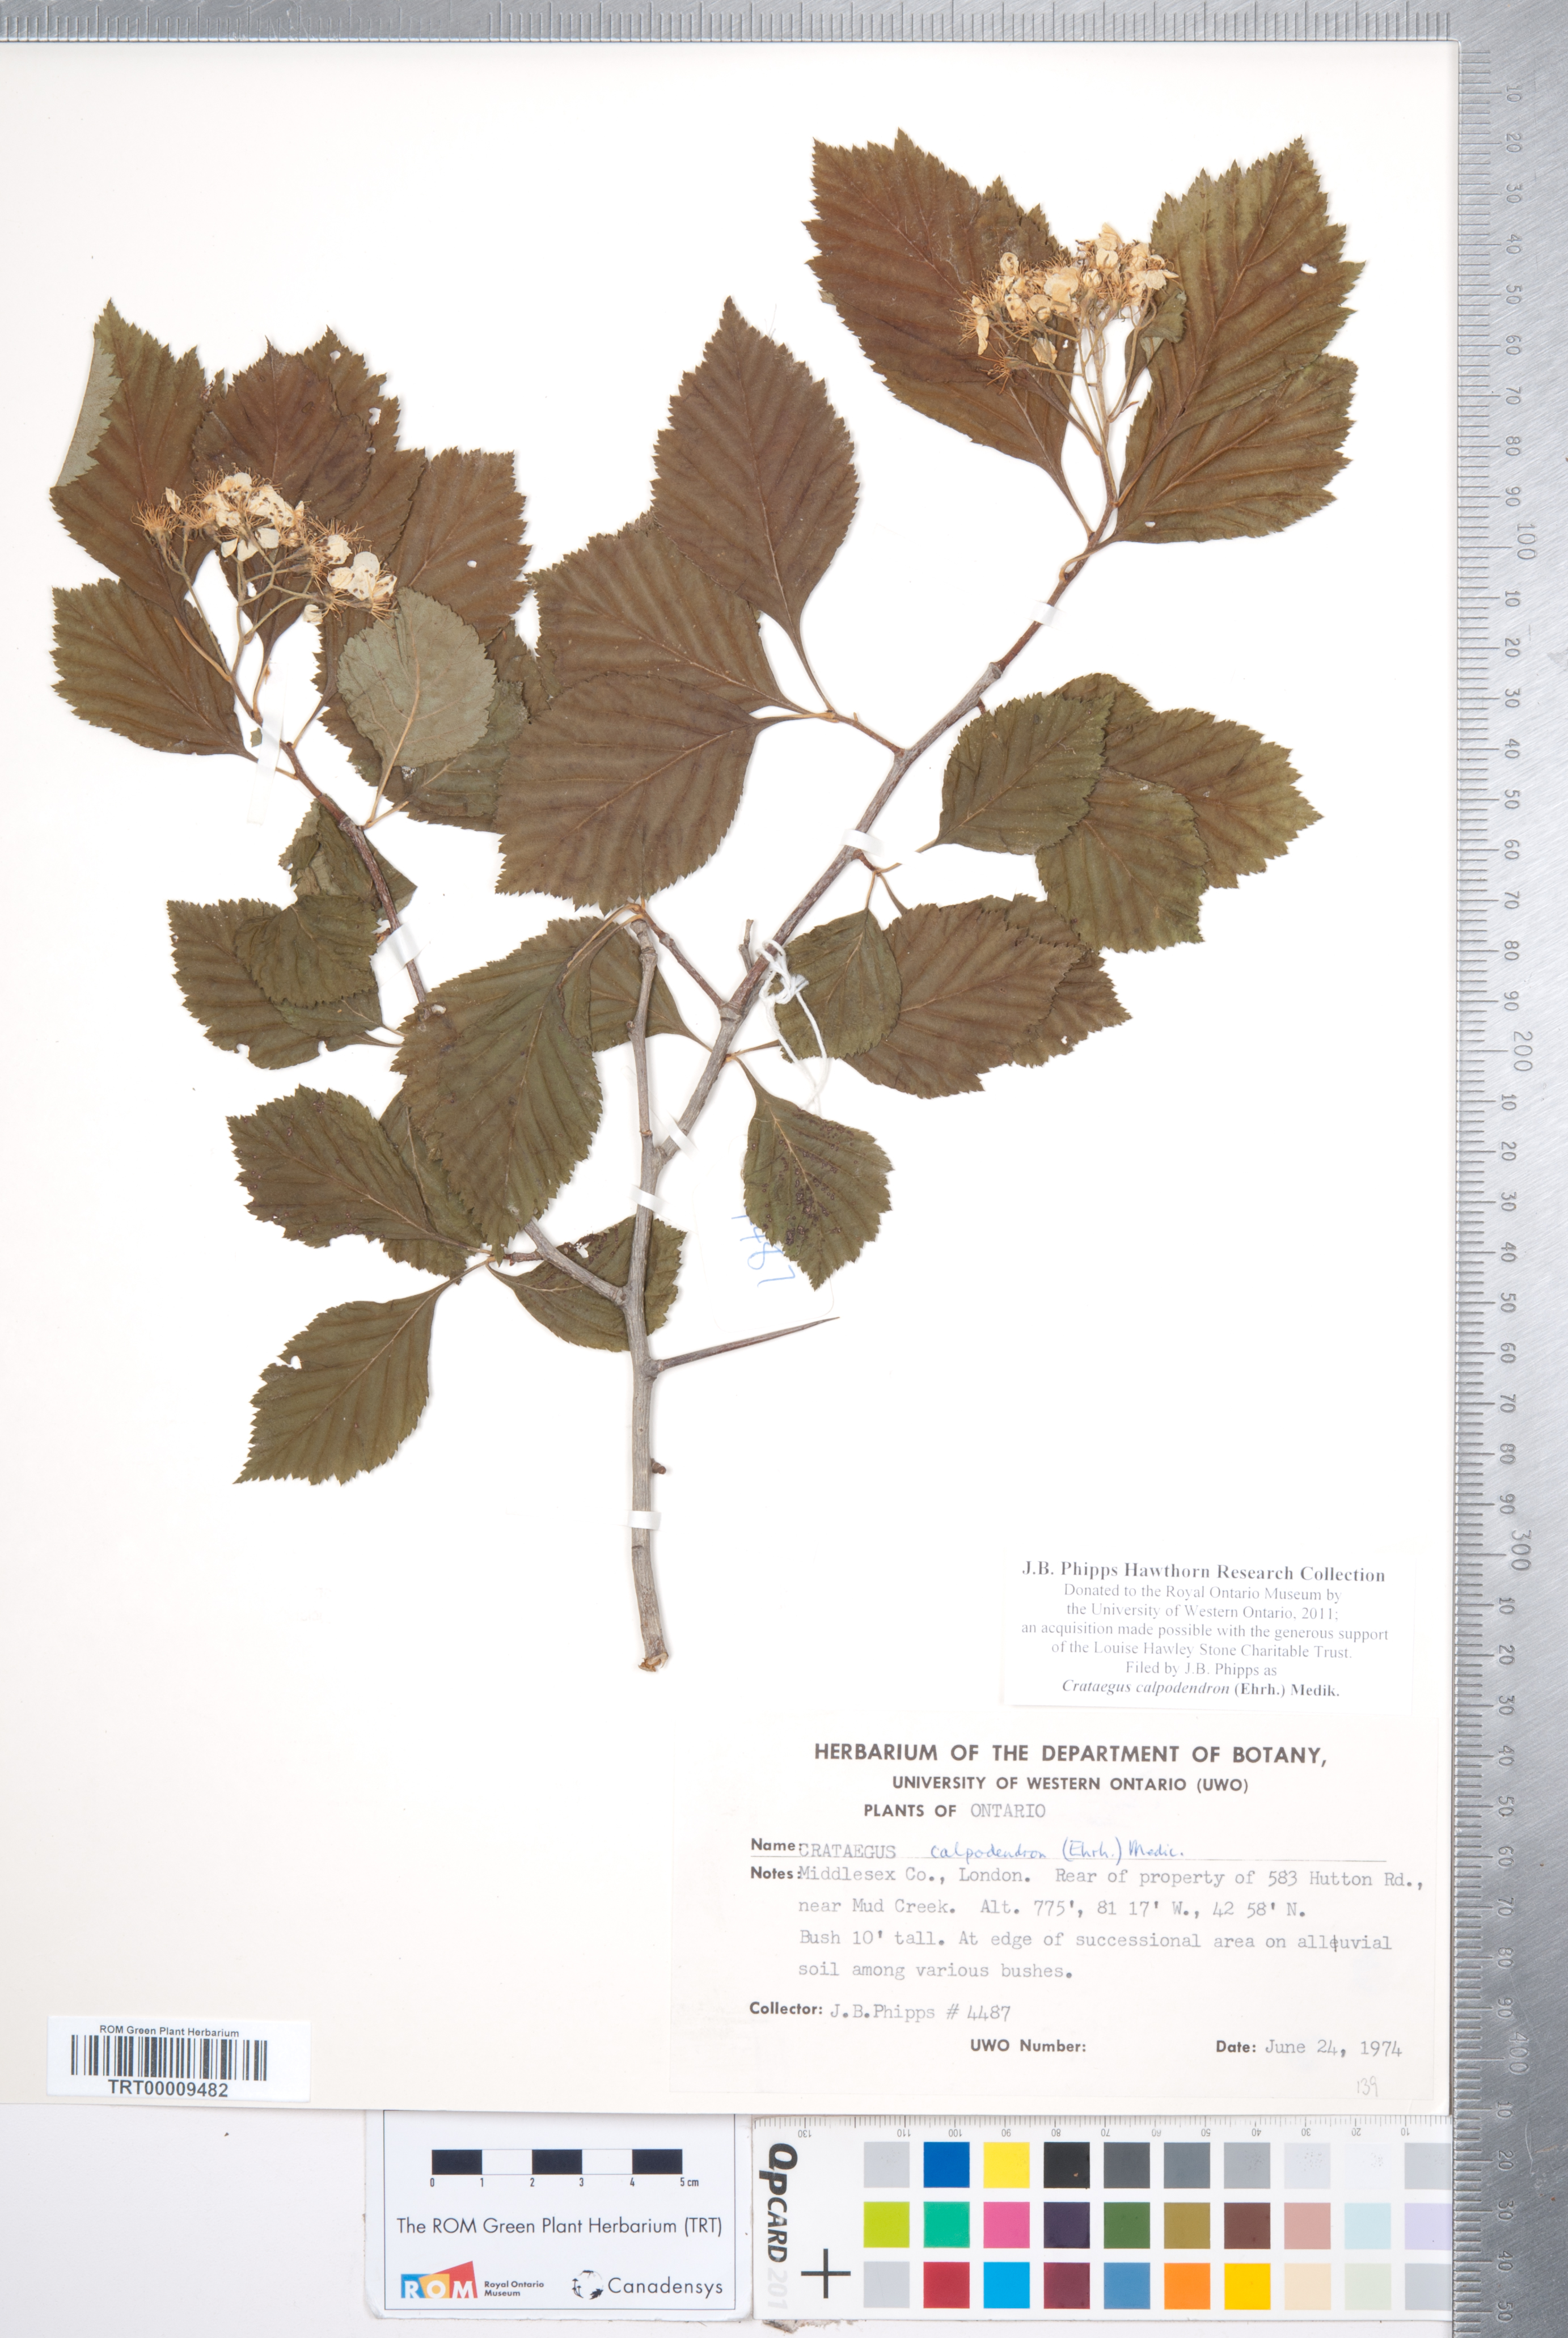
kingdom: Plantae
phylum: Tracheophyta
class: Magnoliopsida
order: Rosales
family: Rosaceae
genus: Crataegus
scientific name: Crataegus calpodendron
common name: Pear hawthorn
